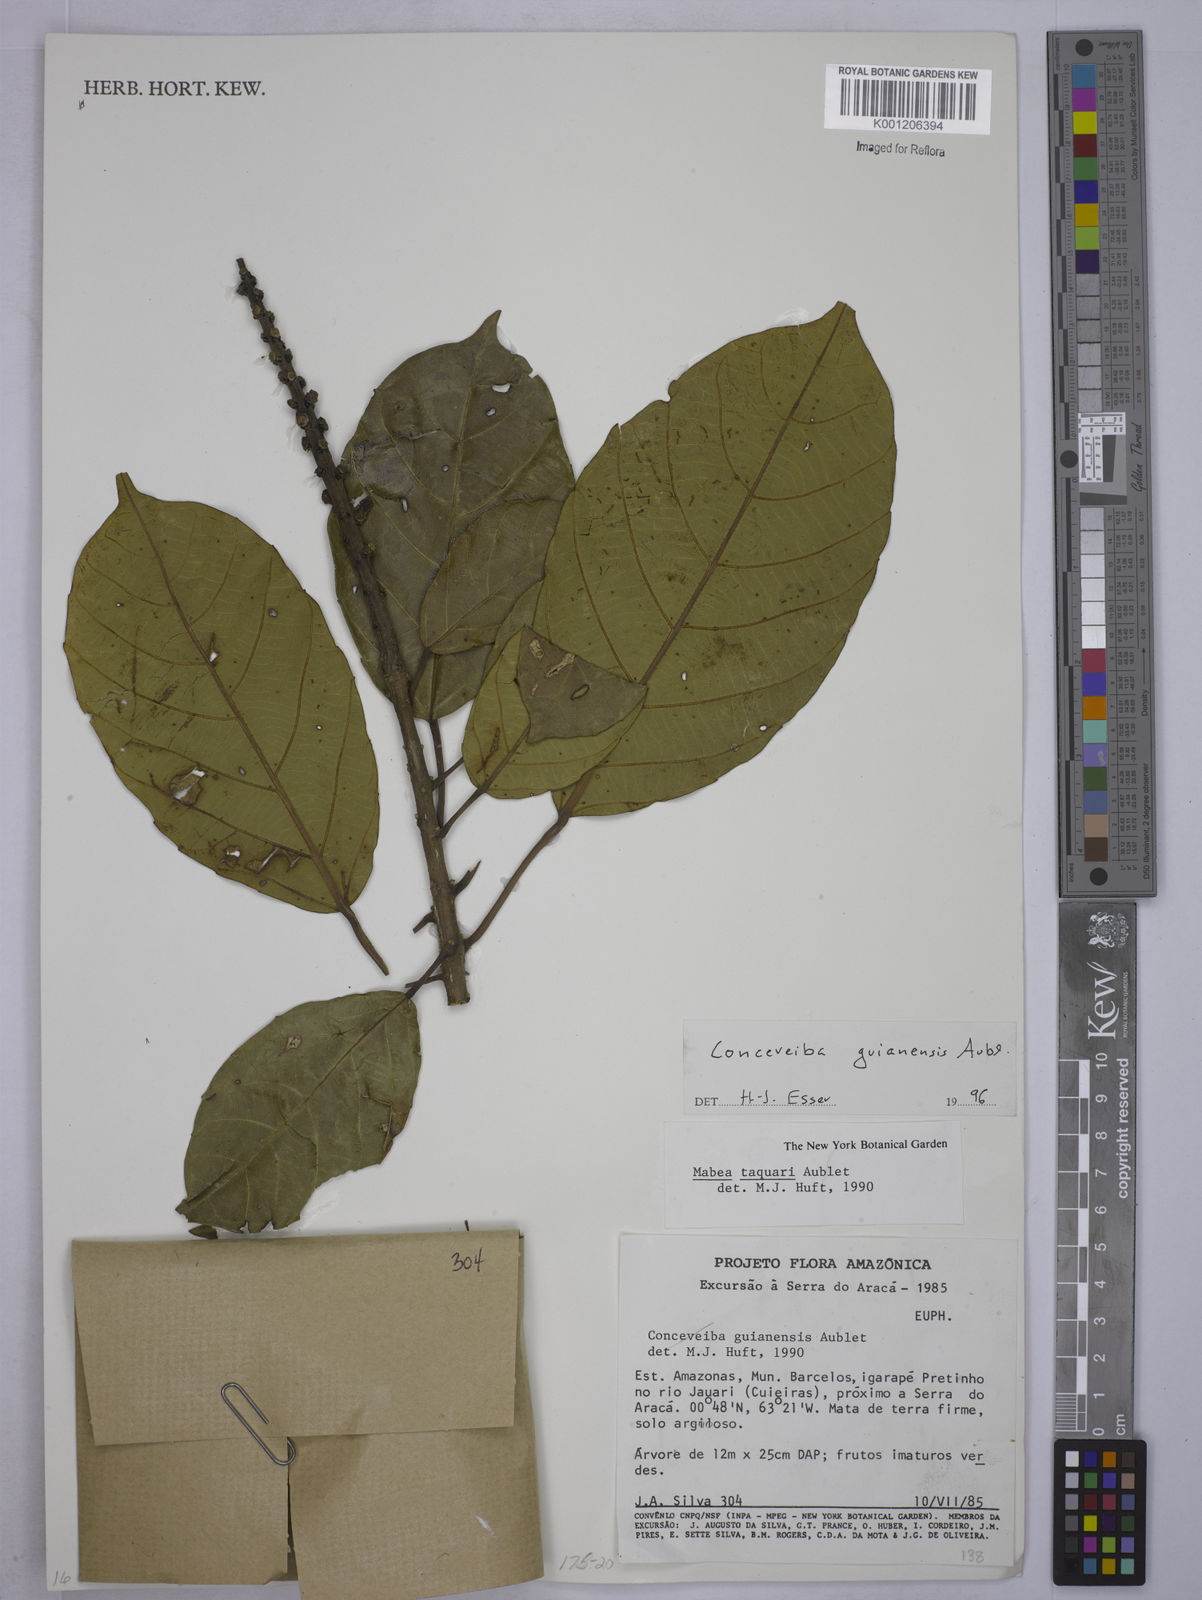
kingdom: Plantae
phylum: Tracheophyta
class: Magnoliopsida
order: Malpighiales
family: Euphorbiaceae
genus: Conceveiba
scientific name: Conceveiba guianensis
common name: Poatoru
